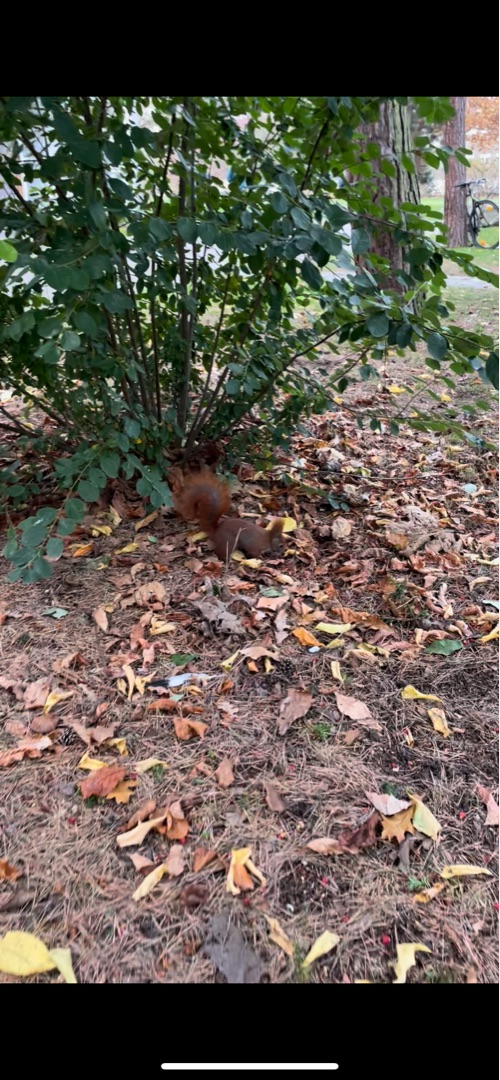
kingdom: Animalia
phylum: Chordata
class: Mammalia
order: Rodentia
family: Sciuridae
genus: Sciurus
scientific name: Sciurus vulgaris
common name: Egern
